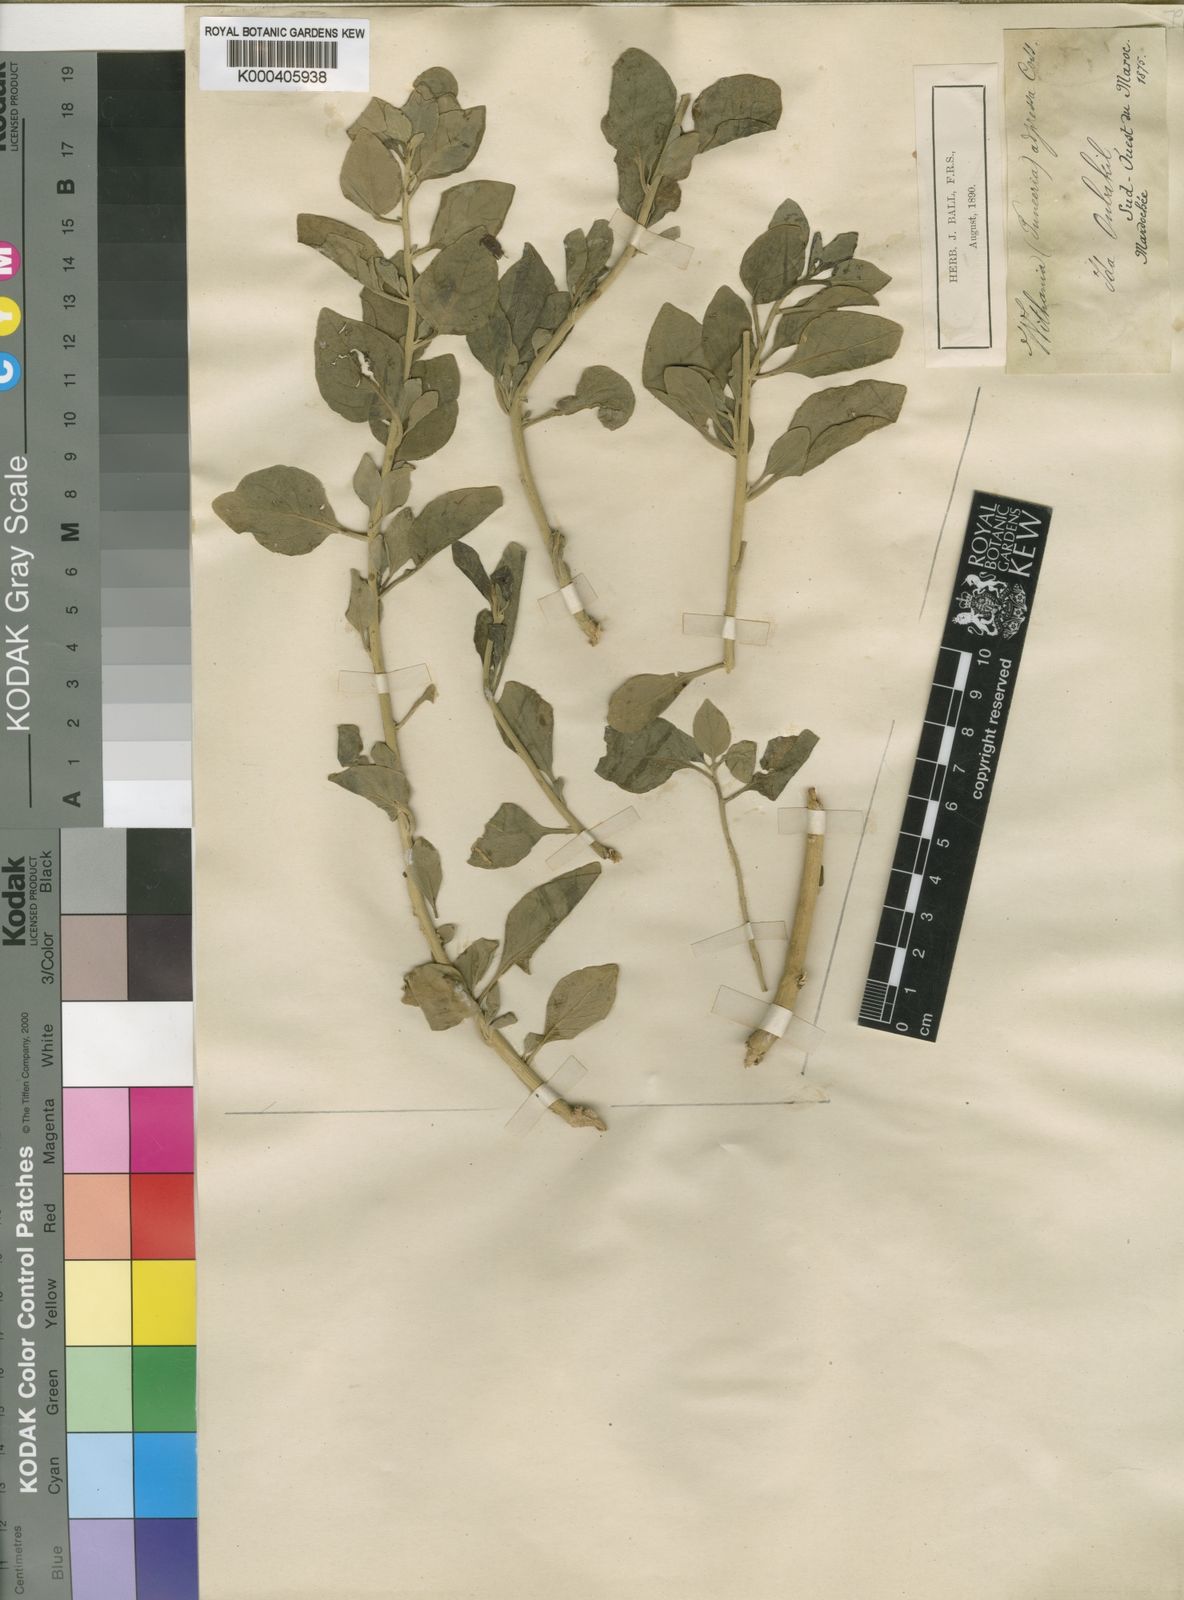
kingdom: Plantae
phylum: Tracheophyta
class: Magnoliopsida
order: Solanales
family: Solanaceae
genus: Withania
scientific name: Withania adpressa
